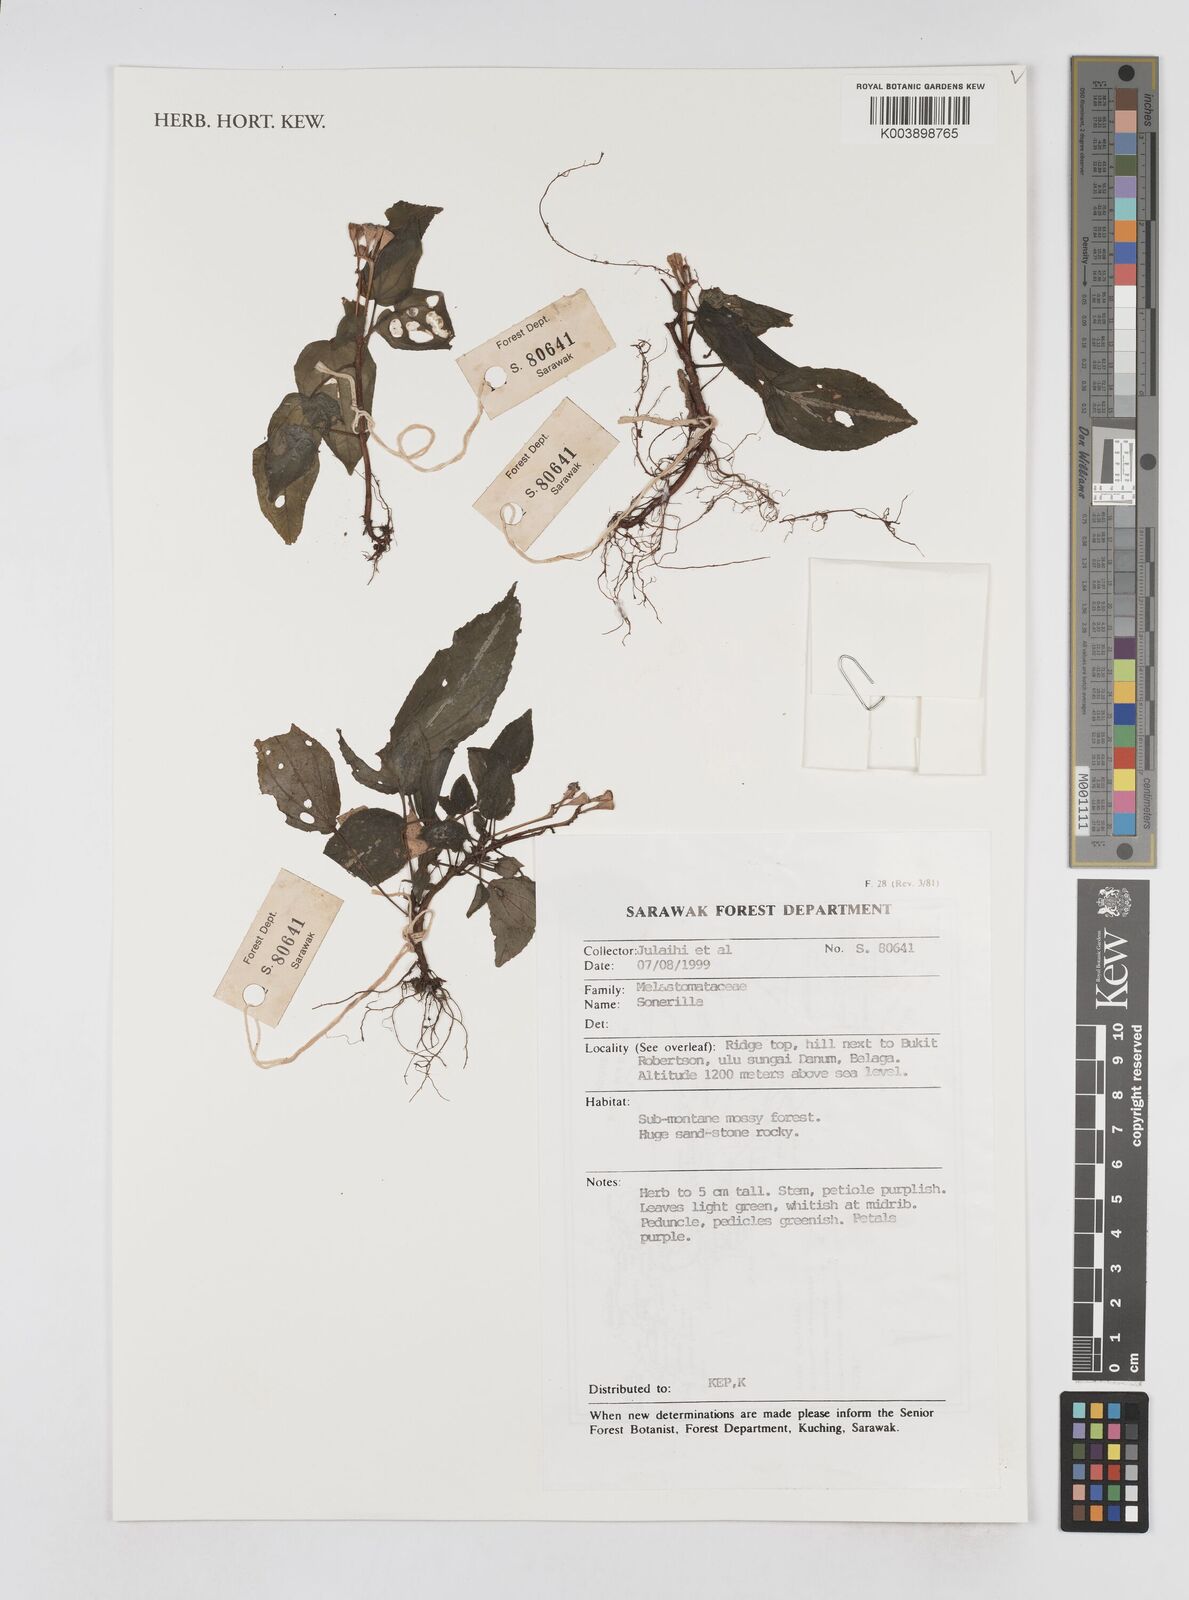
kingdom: Plantae
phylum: Tracheophyta
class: Magnoliopsida
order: Myrtales
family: Melastomataceae
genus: Sonerila
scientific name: Sonerila
